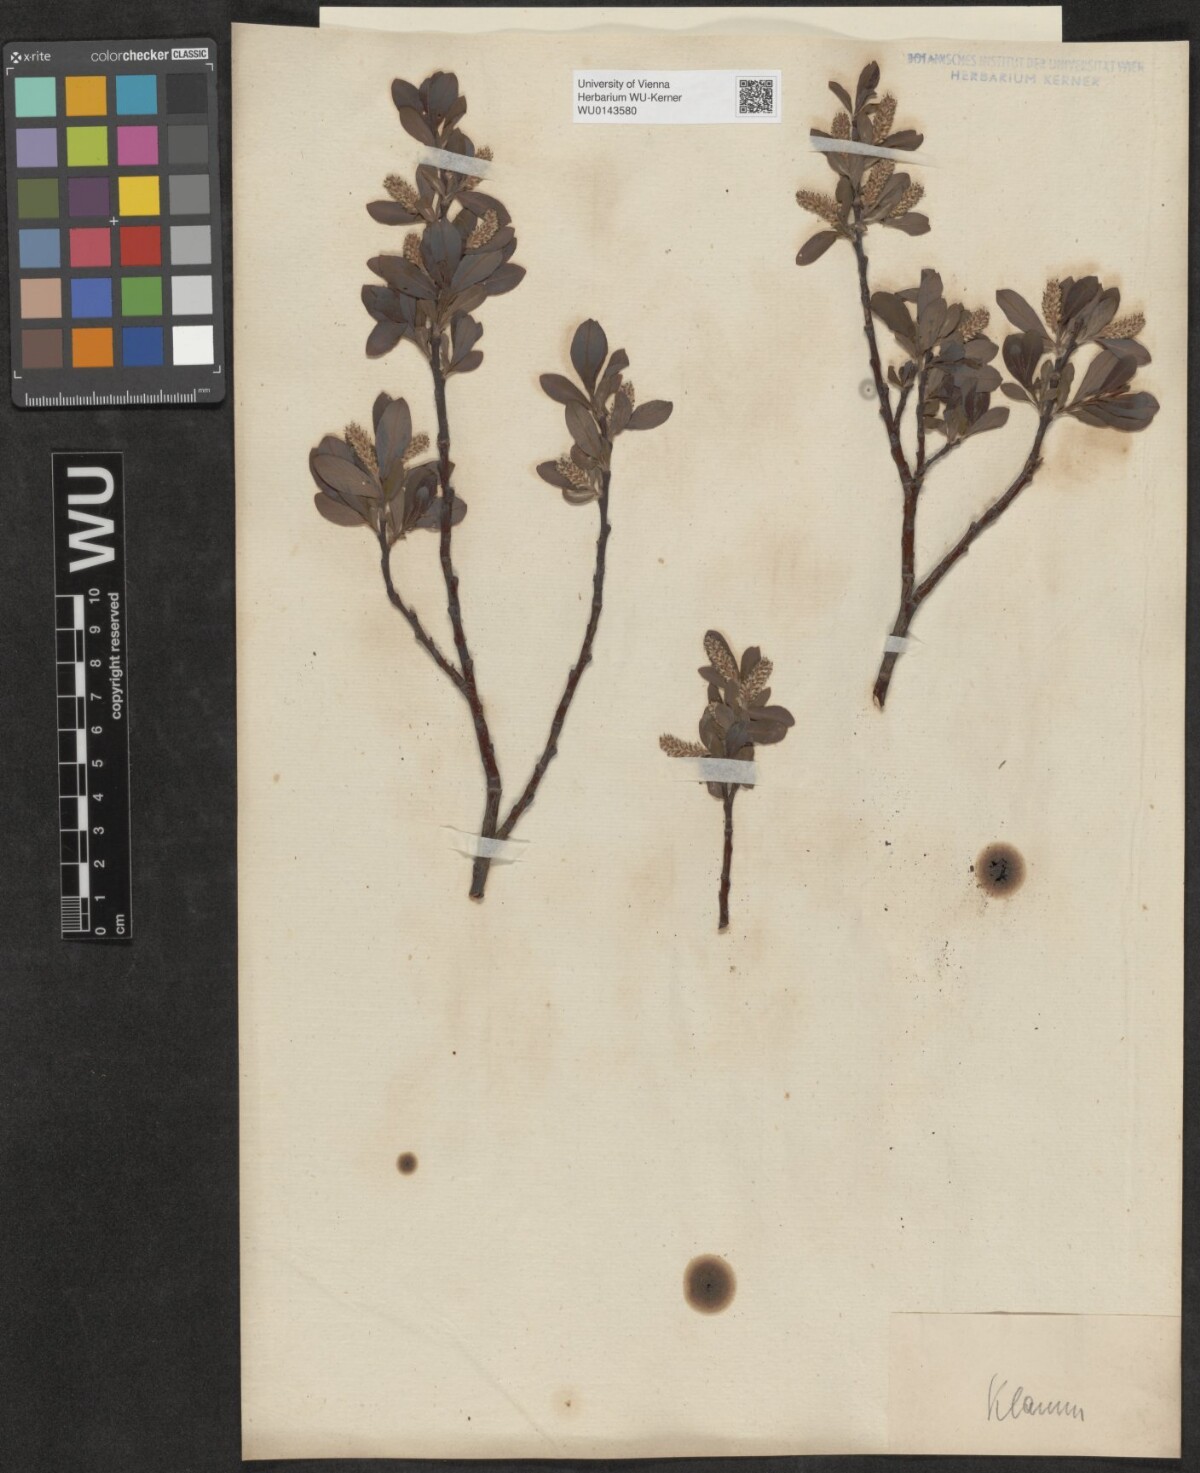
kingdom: Plantae
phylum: Tracheophyta
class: Magnoliopsida
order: Malpighiales
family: Salicaceae
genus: Salix
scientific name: Salix waldsteiniana
